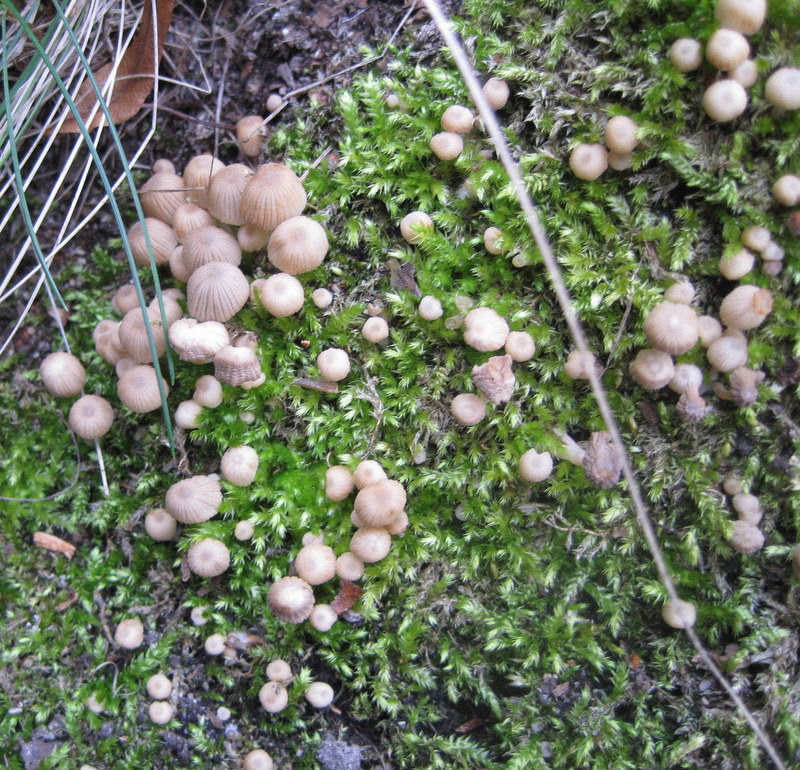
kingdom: Fungi
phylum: Basidiomycota
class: Agaricomycetes
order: Agaricales
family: Psathyrellaceae
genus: Coprinellus
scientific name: Coprinellus disseminatus
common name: bredsået blækhat
